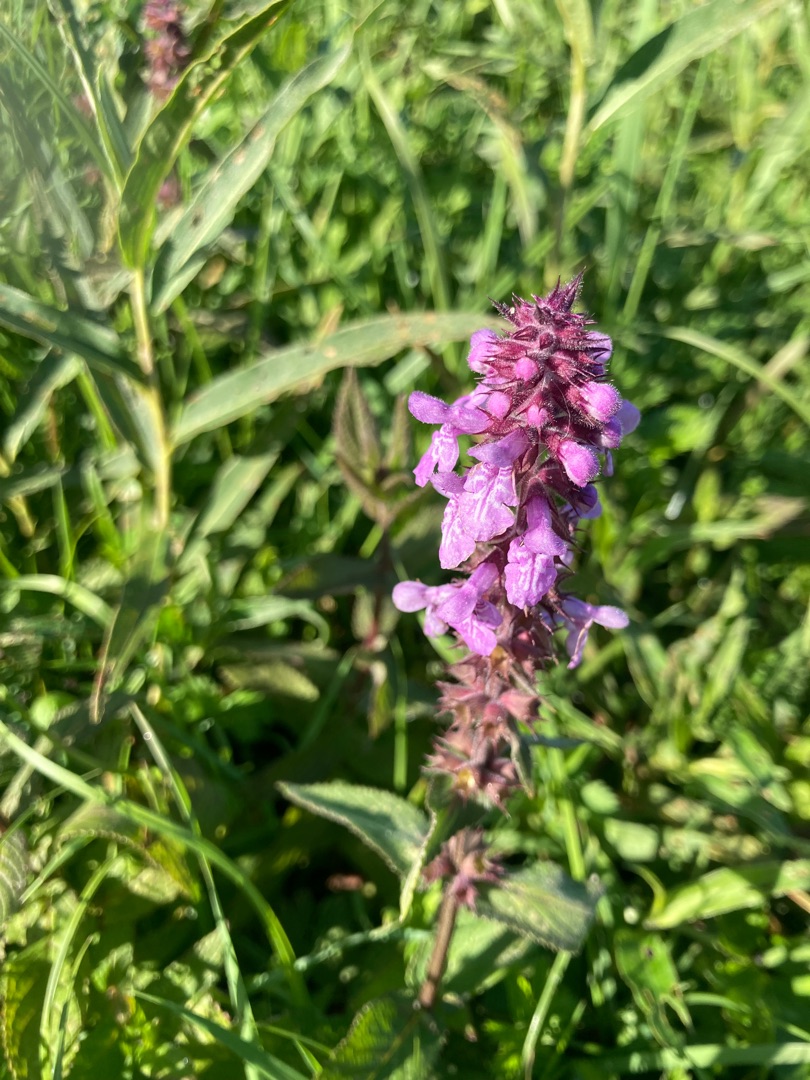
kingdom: Plantae
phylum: Tracheophyta
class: Magnoliopsida
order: Lamiales
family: Lamiaceae
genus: Stachys
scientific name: Stachys palustris
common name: Kær-galtetand
